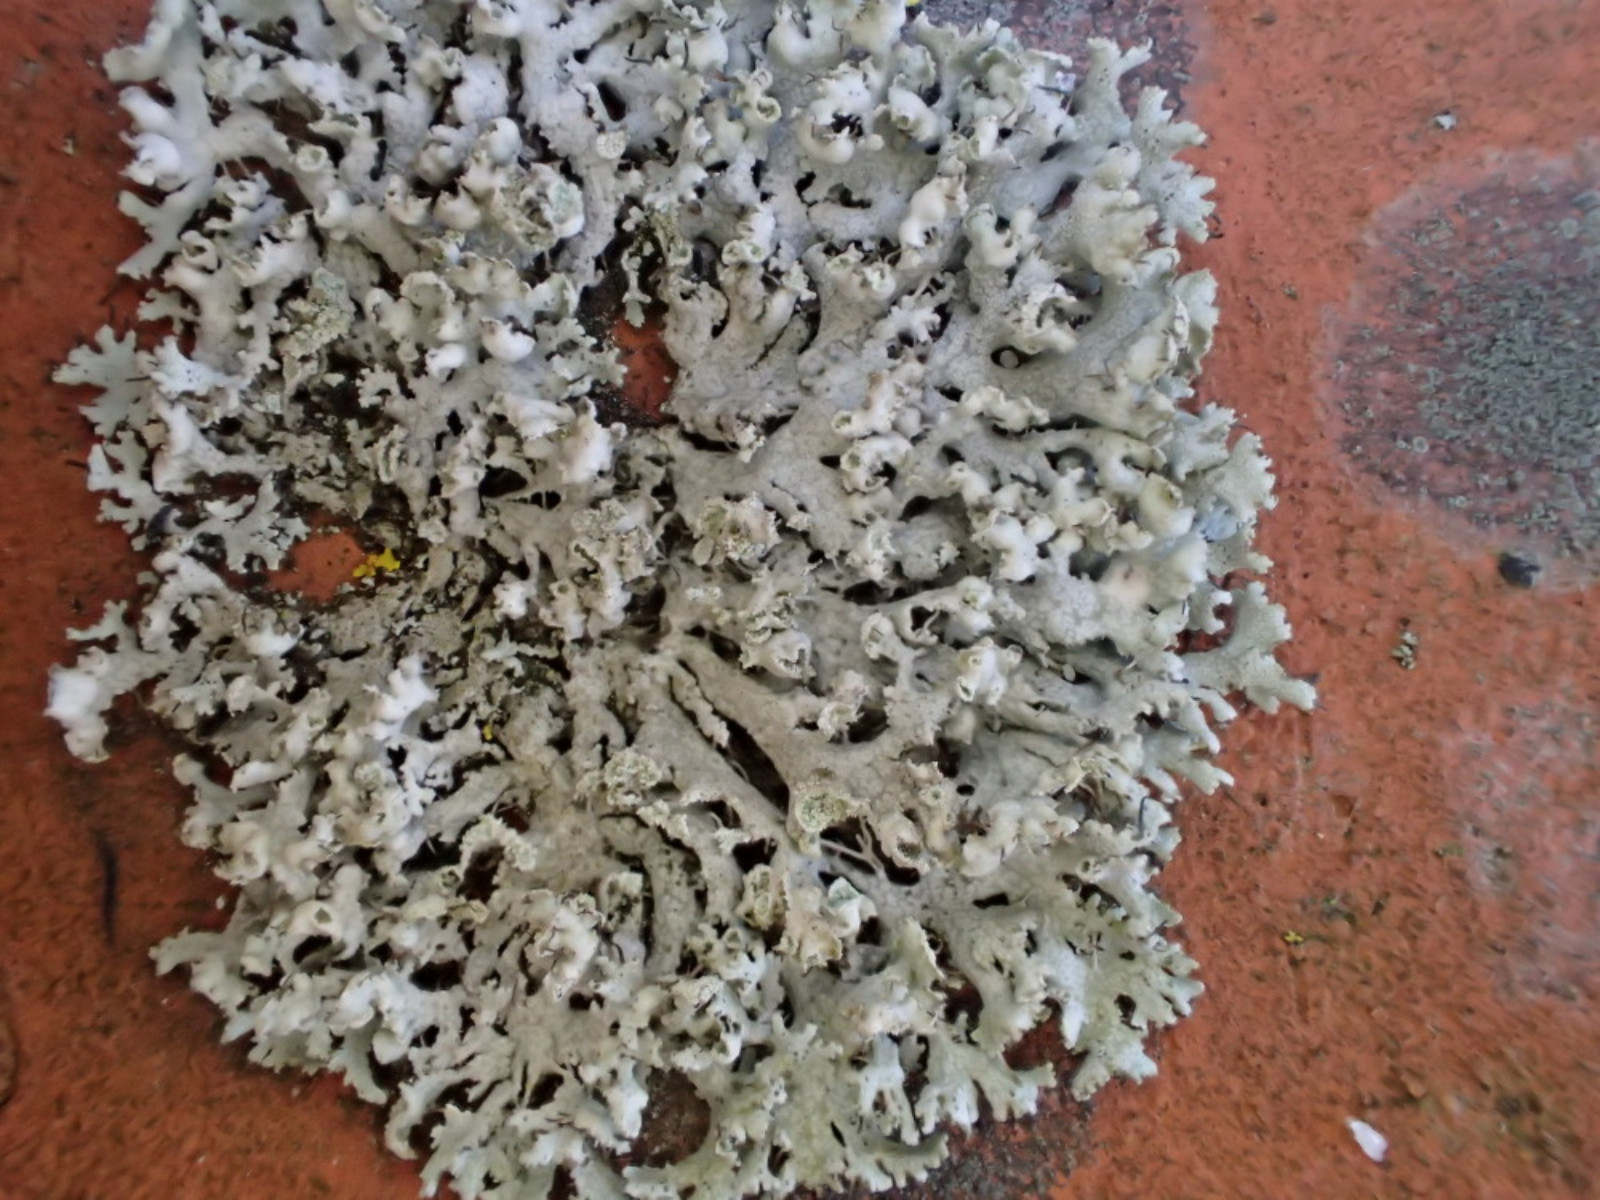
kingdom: Fungi
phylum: Ascomycota
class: Lecanoromycetes
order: Caliciales
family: Physciaceae
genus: Physcia
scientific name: Physcia adscendens
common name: hætte-rosetlav
